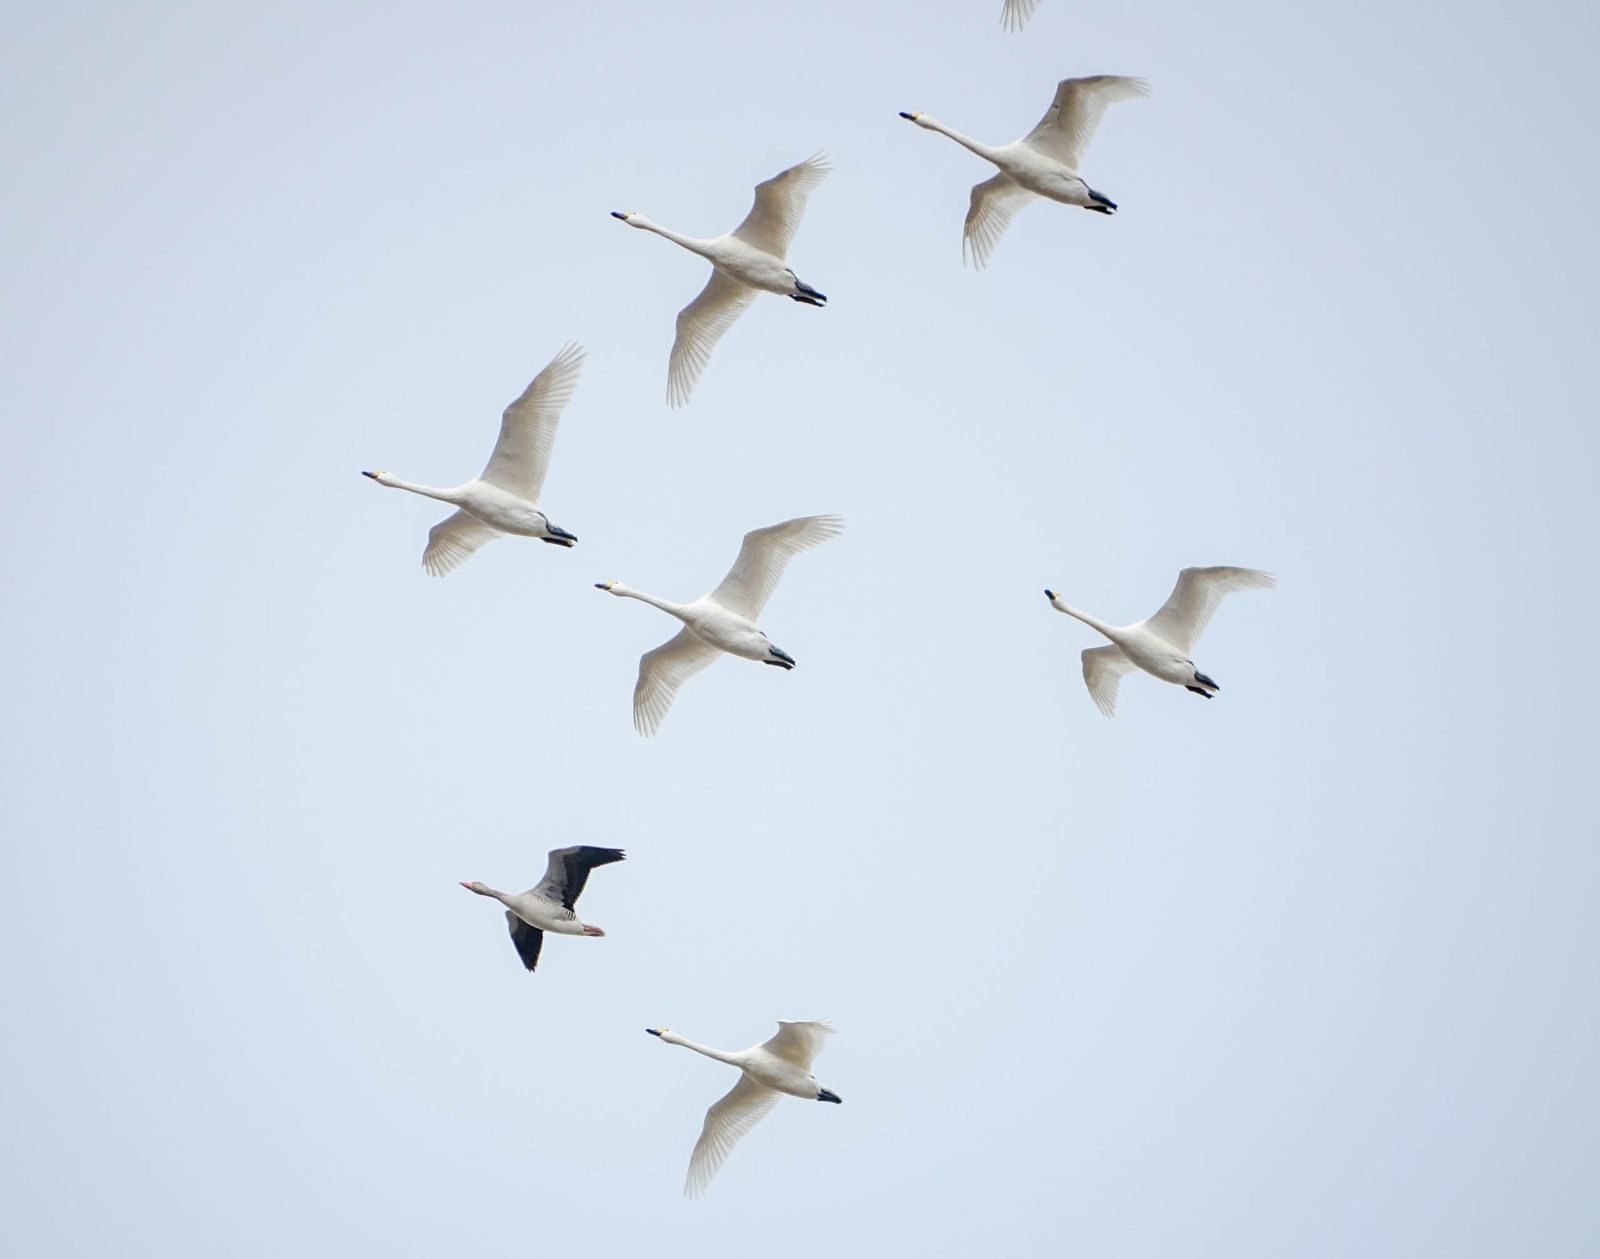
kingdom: Animalia
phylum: Chordata
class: Aves
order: Anseriformes
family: Anatidae
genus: Cygnus
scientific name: Cygnus cygnus
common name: Whooper swan
